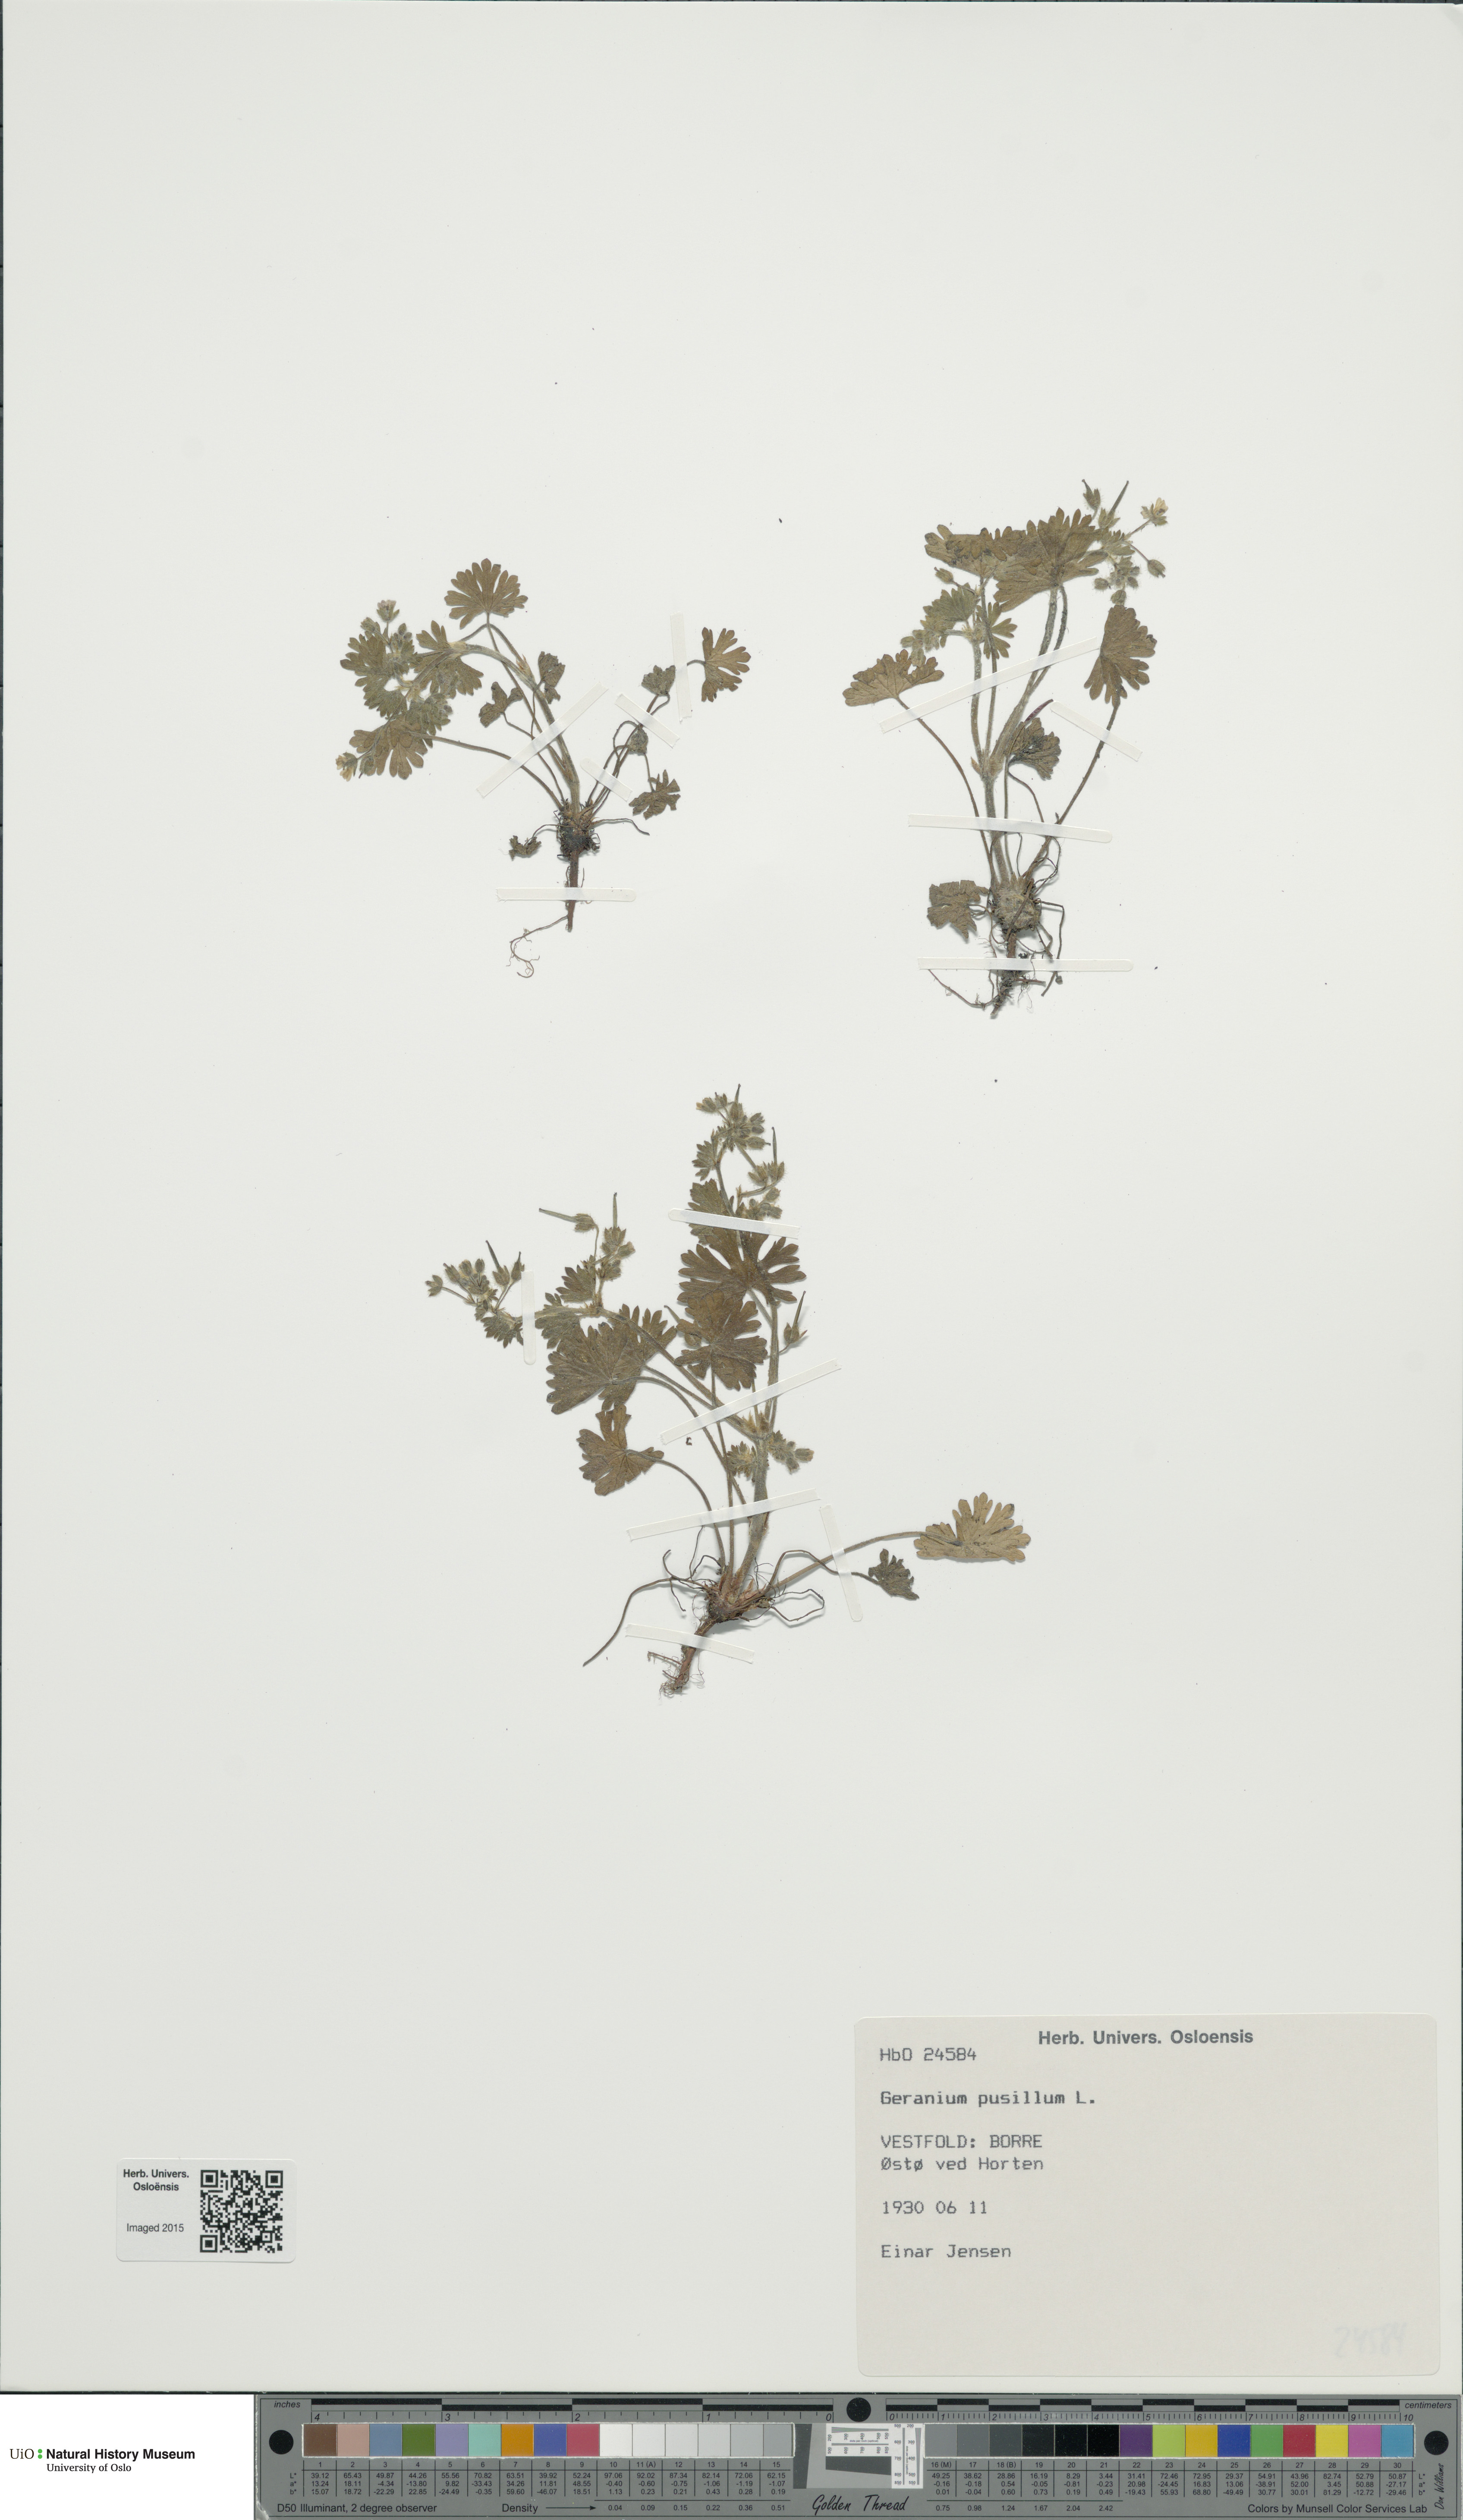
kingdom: Plantae
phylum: Tracheophyta
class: Magnoliopsida
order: Geraniales
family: Geraniaceae
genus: Geranium
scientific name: Geranium pusillum
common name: Small geranium
